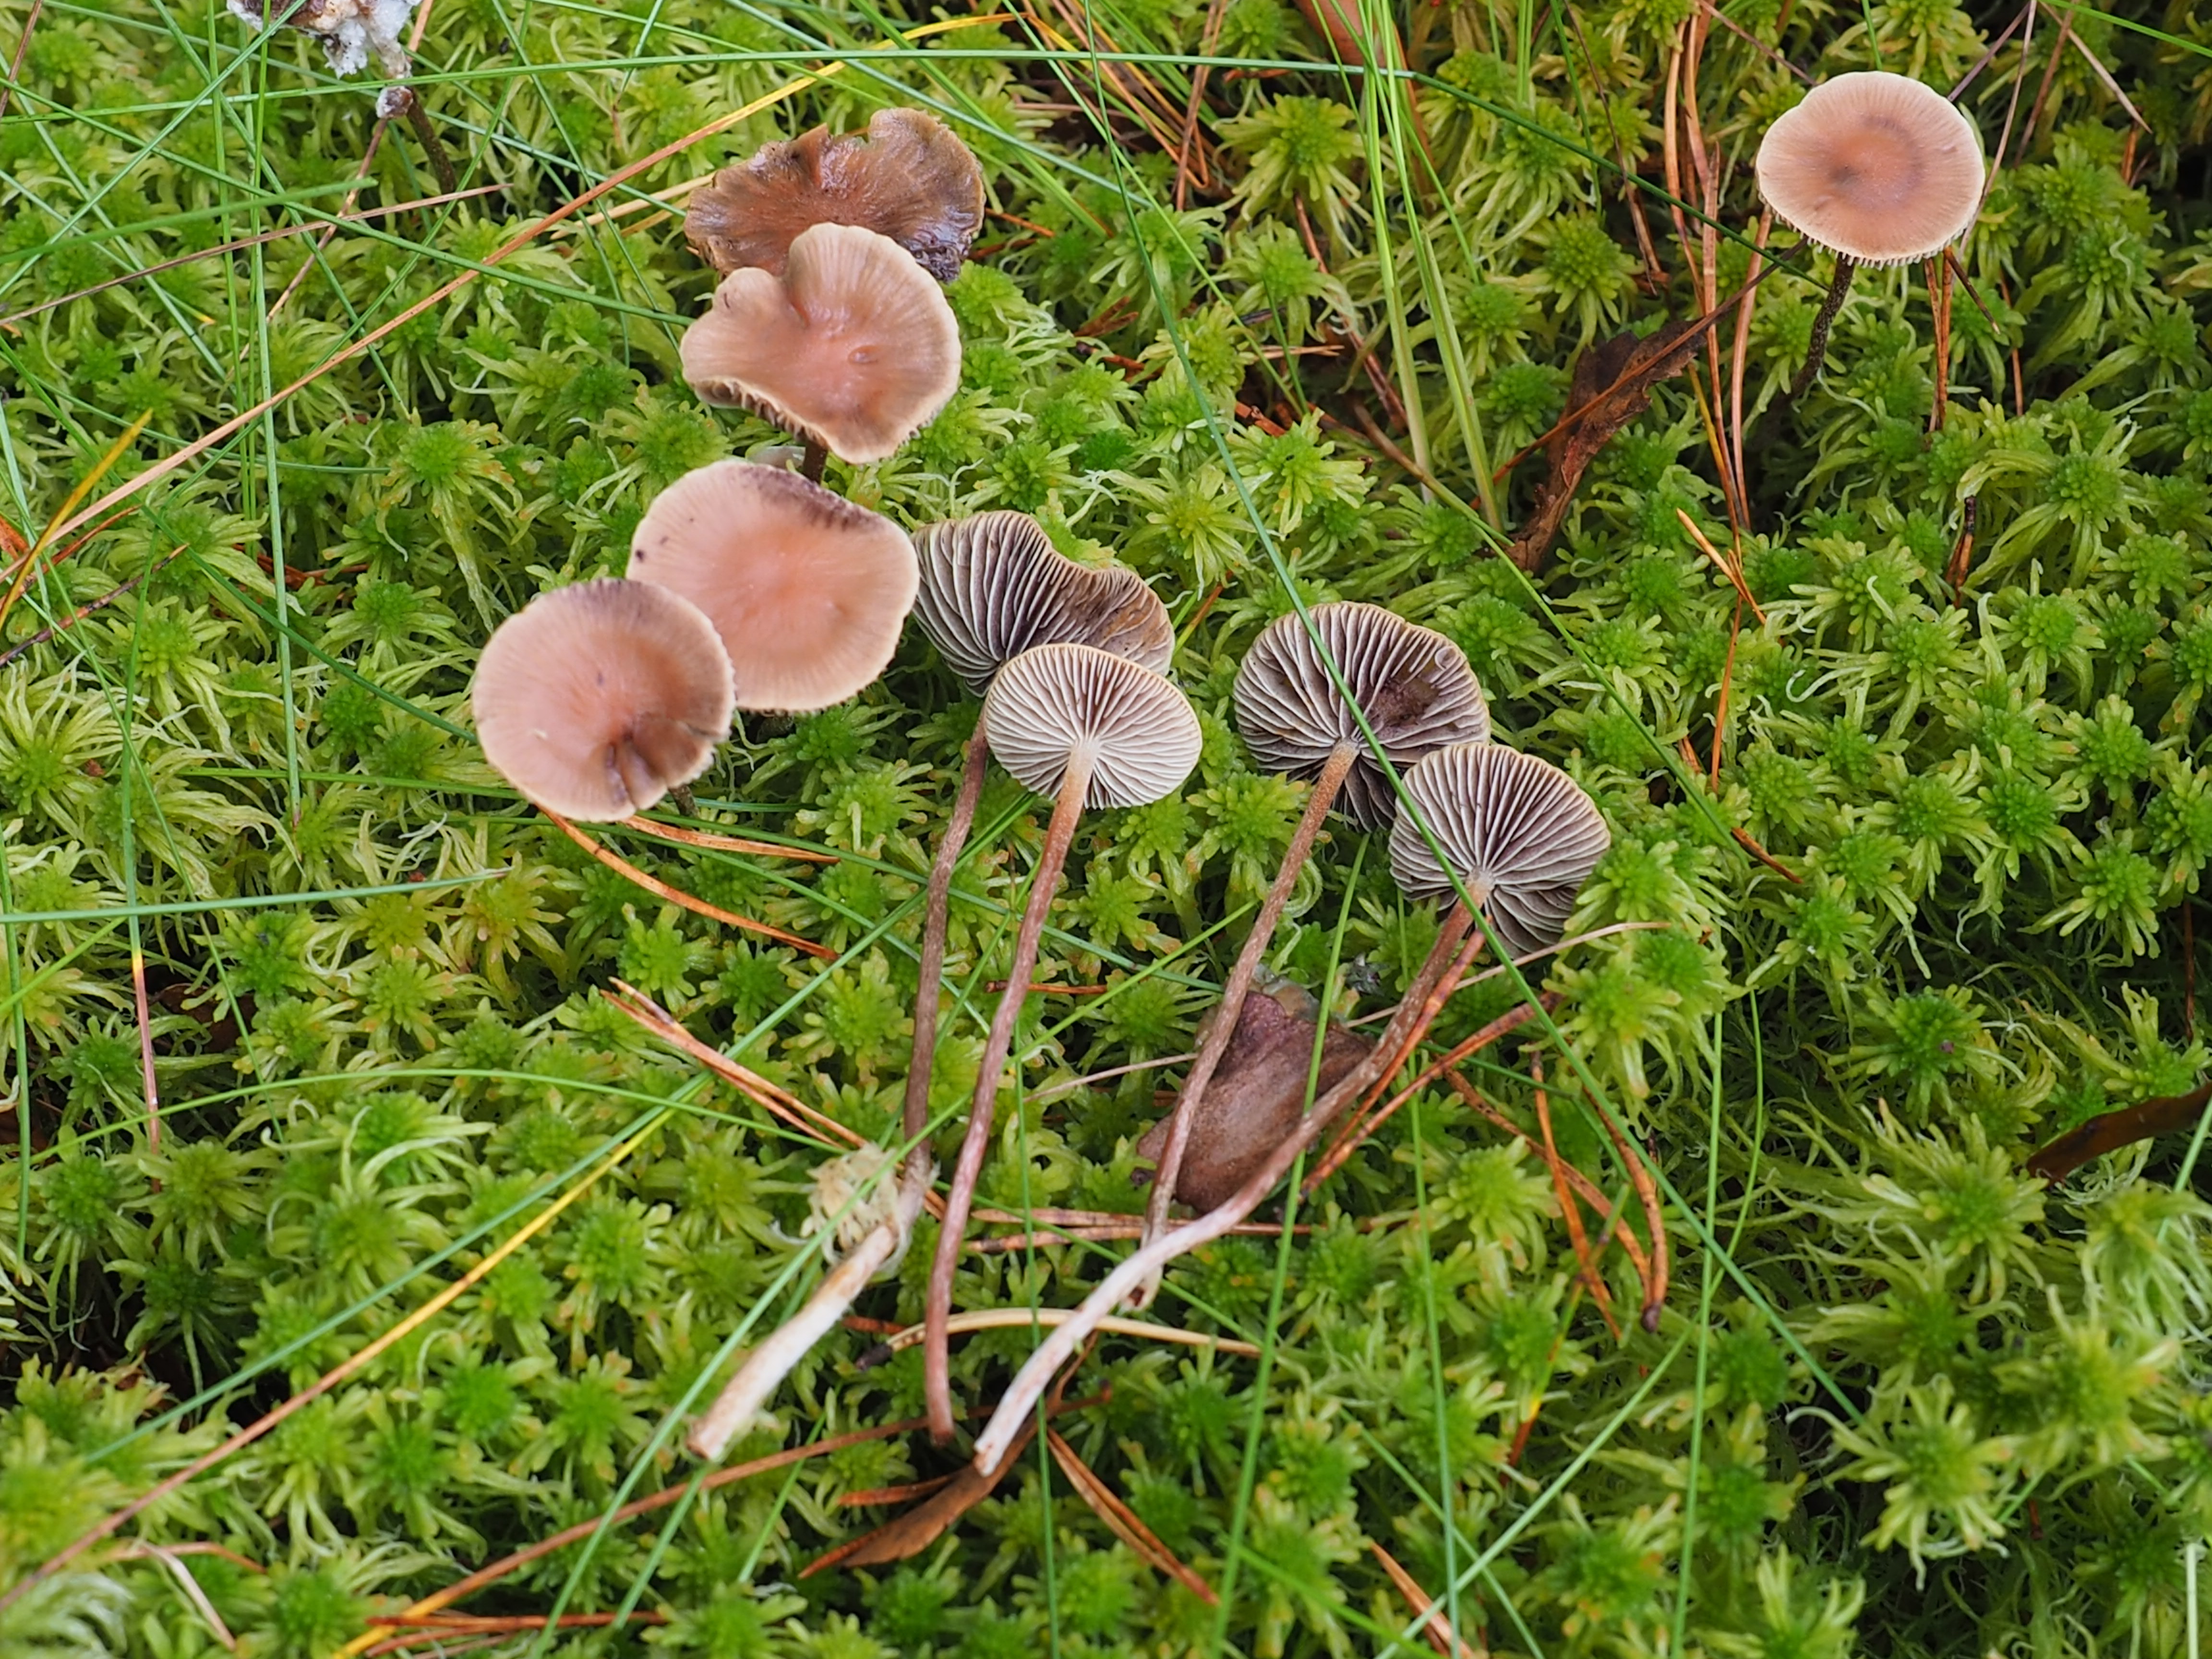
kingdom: Fungi
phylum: Basidiomycota
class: Agaricomycetes
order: Agaricales
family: Strophariaceae
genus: Bogbodia
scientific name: Bogbodia uda
